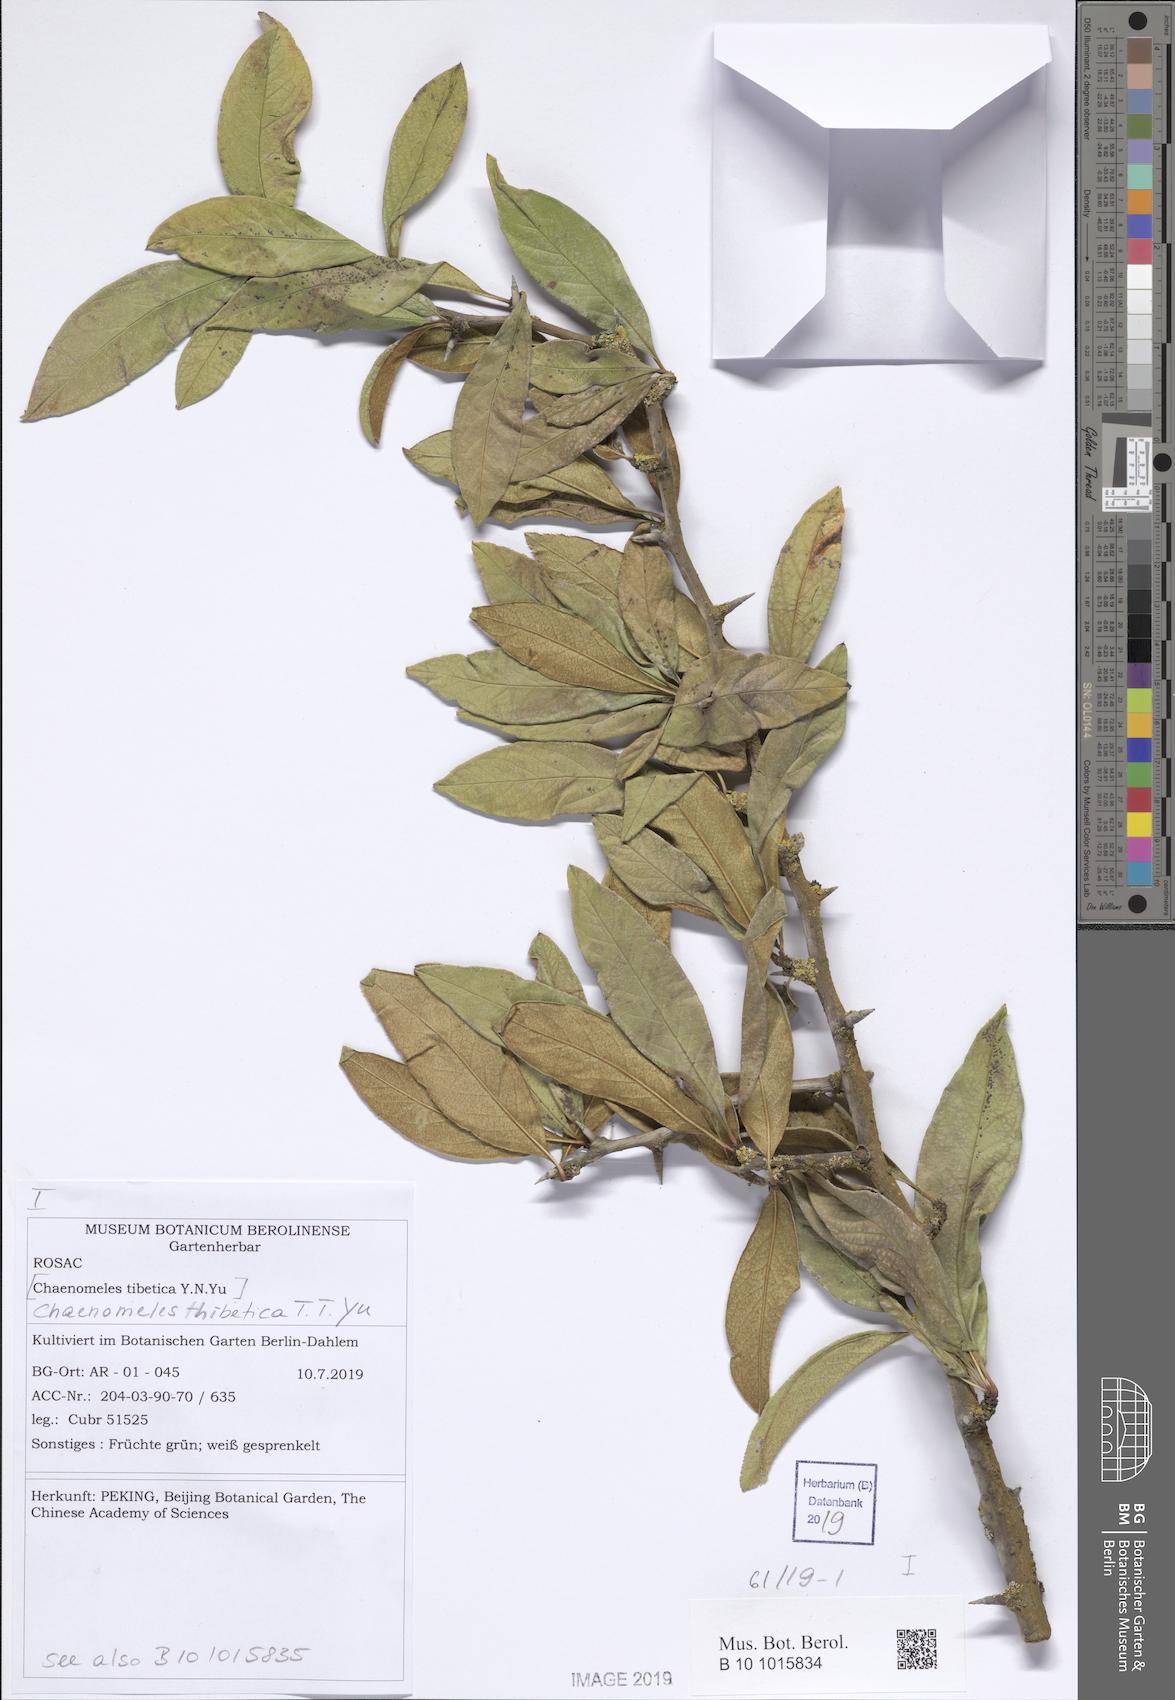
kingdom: Plantae
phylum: Tracheophyta
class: Magnoliopsida
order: Rosales
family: Rosaceae
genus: Chaenomeles
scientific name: Chaenomeles thibetica
